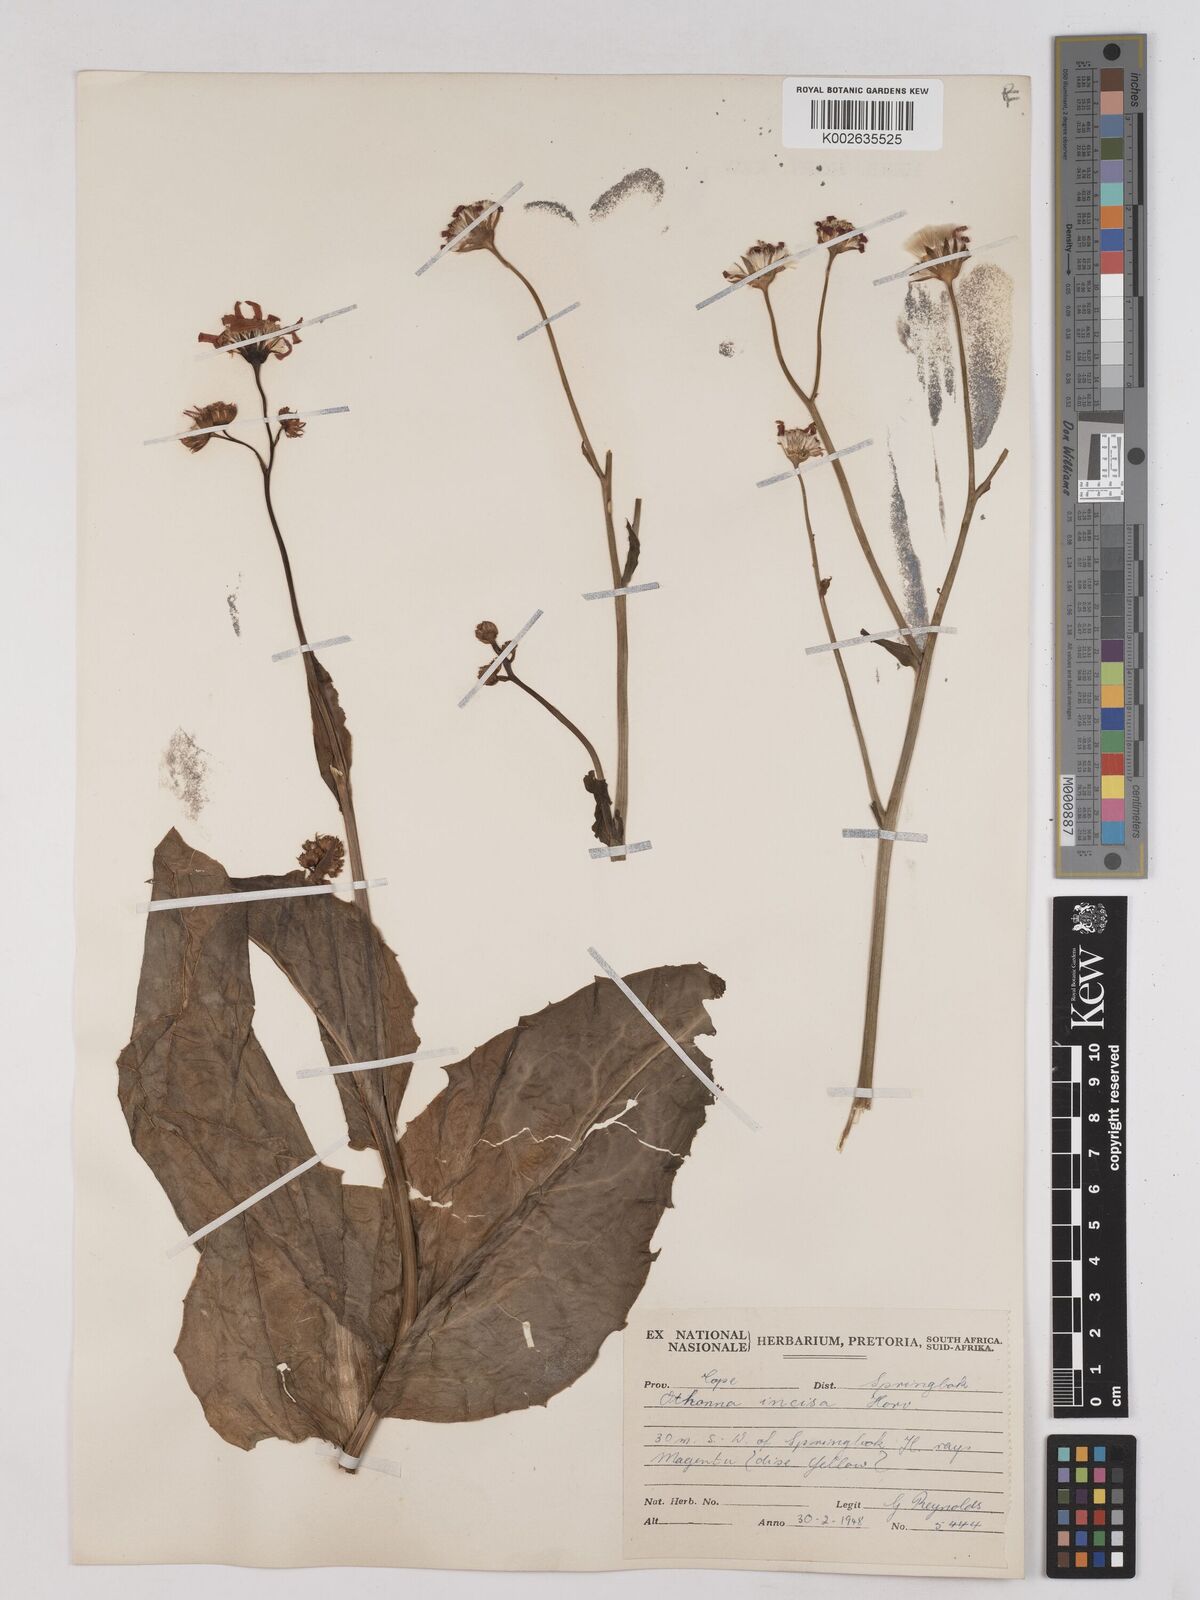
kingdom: Plantae
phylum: Tracheophyta
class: Magnoliopsida
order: Asterales
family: Asteraceae
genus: Othonna
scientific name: Othonna rosea
